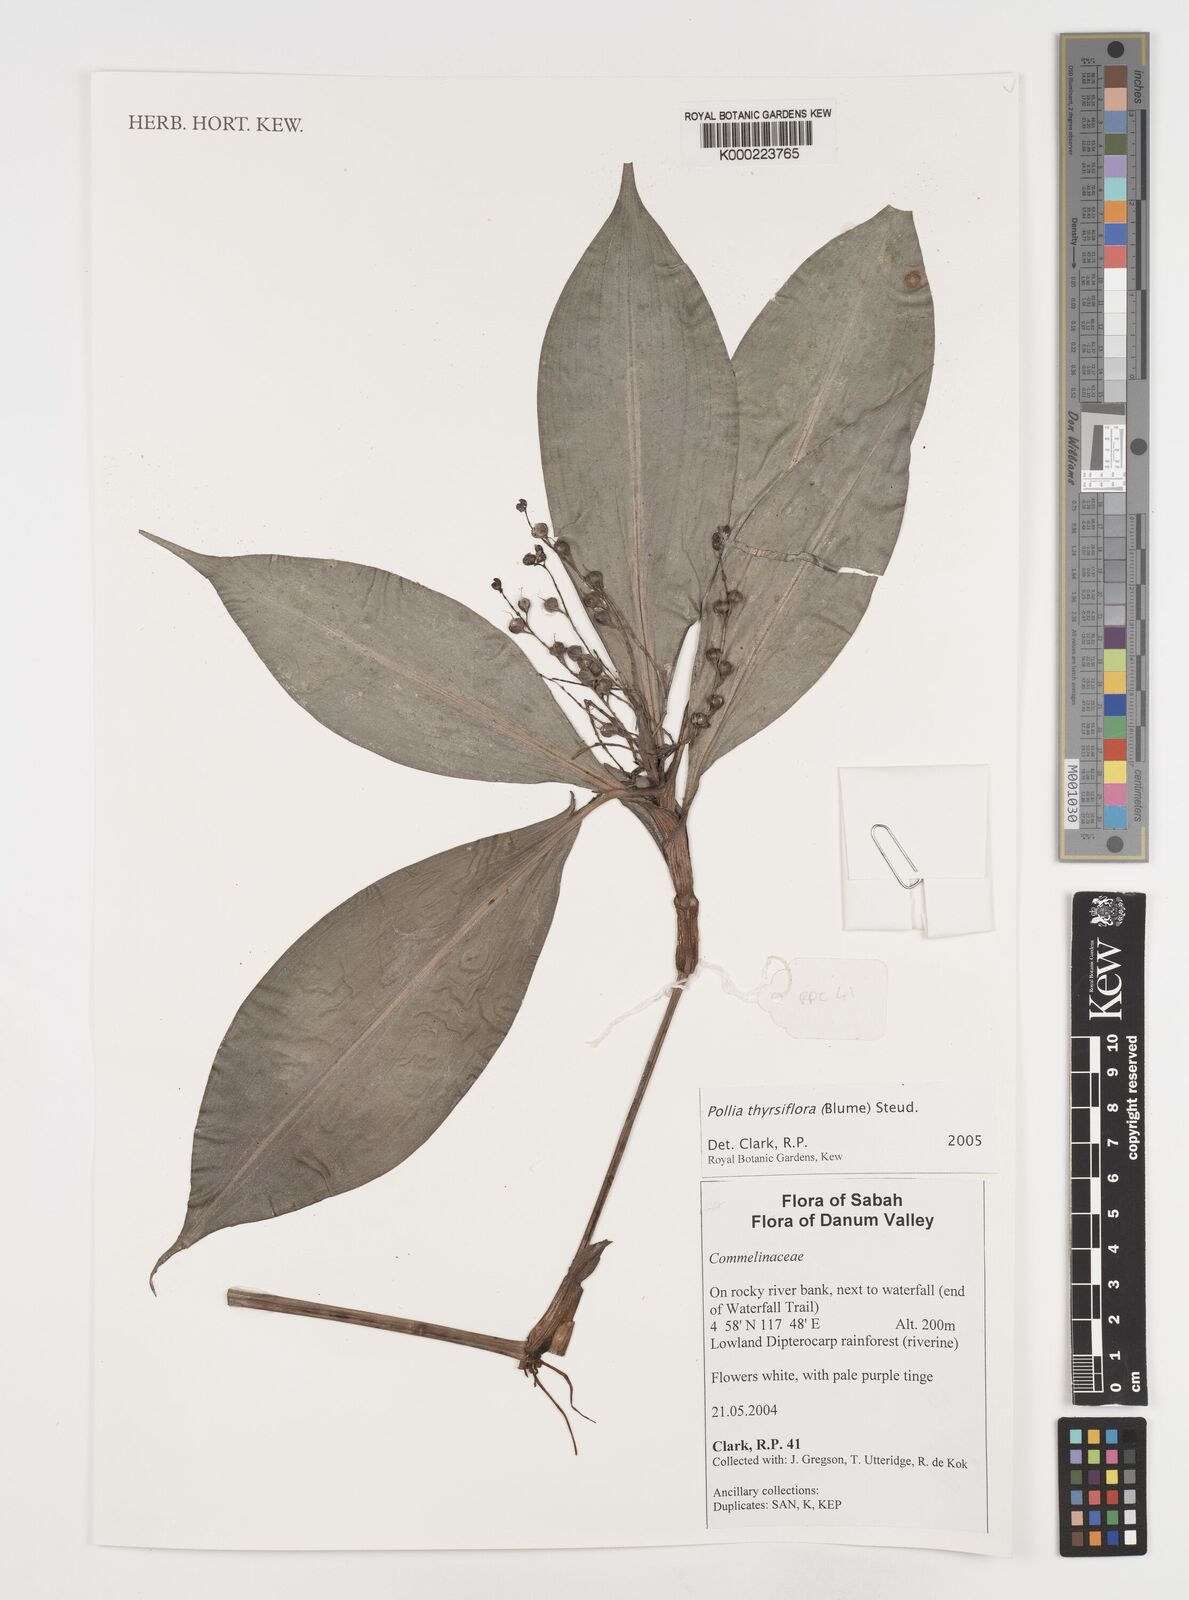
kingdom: Plantae
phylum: Tracheophyta
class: Liliopsida
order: Commelinales
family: Commelinaceae
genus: Pollia
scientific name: Pollia thyrsiflora
